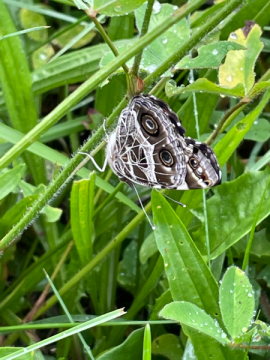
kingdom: Animalia
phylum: Arthropoda
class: Insecta
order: Lepidoptera
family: Nymphalidae
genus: Vanessa
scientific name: Vanessa virginiensis
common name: American Lady
